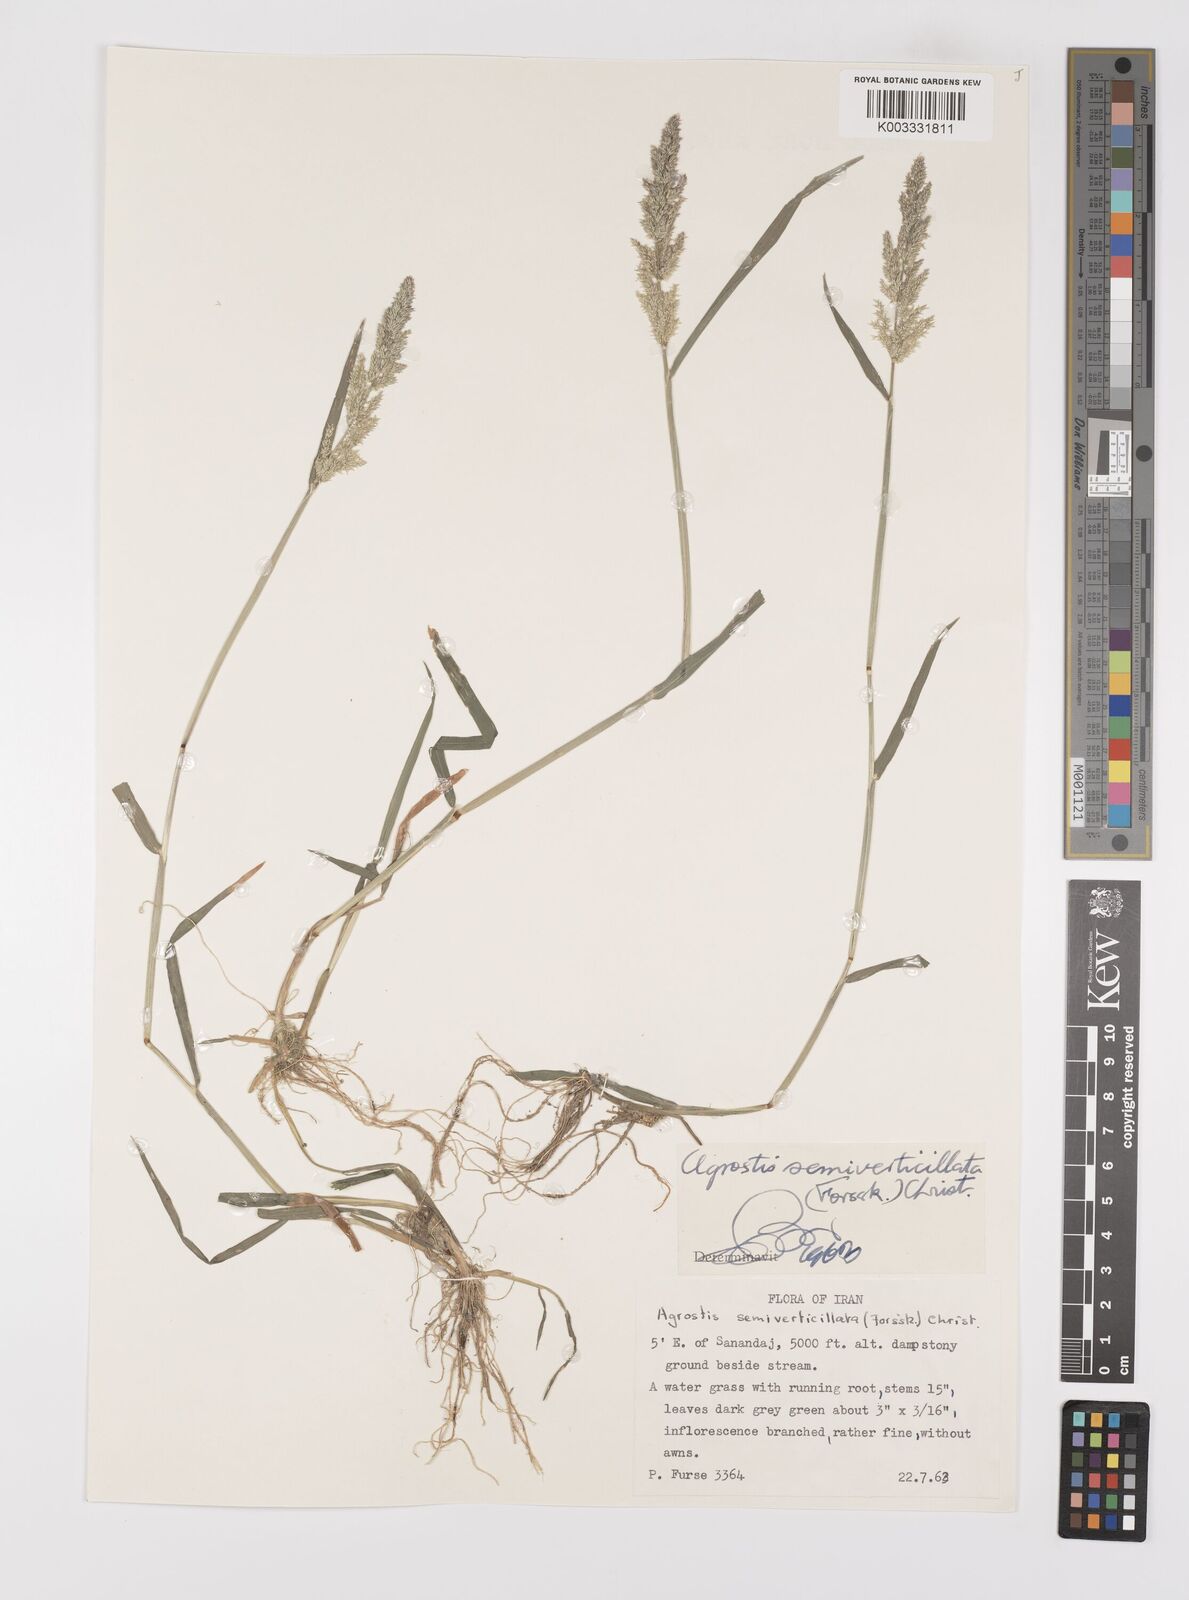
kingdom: Plantae
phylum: Tracheophyta
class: Liliopsida
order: Poales
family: Poaceae
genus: Polypogon
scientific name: Polypogon viridis
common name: Water bent
